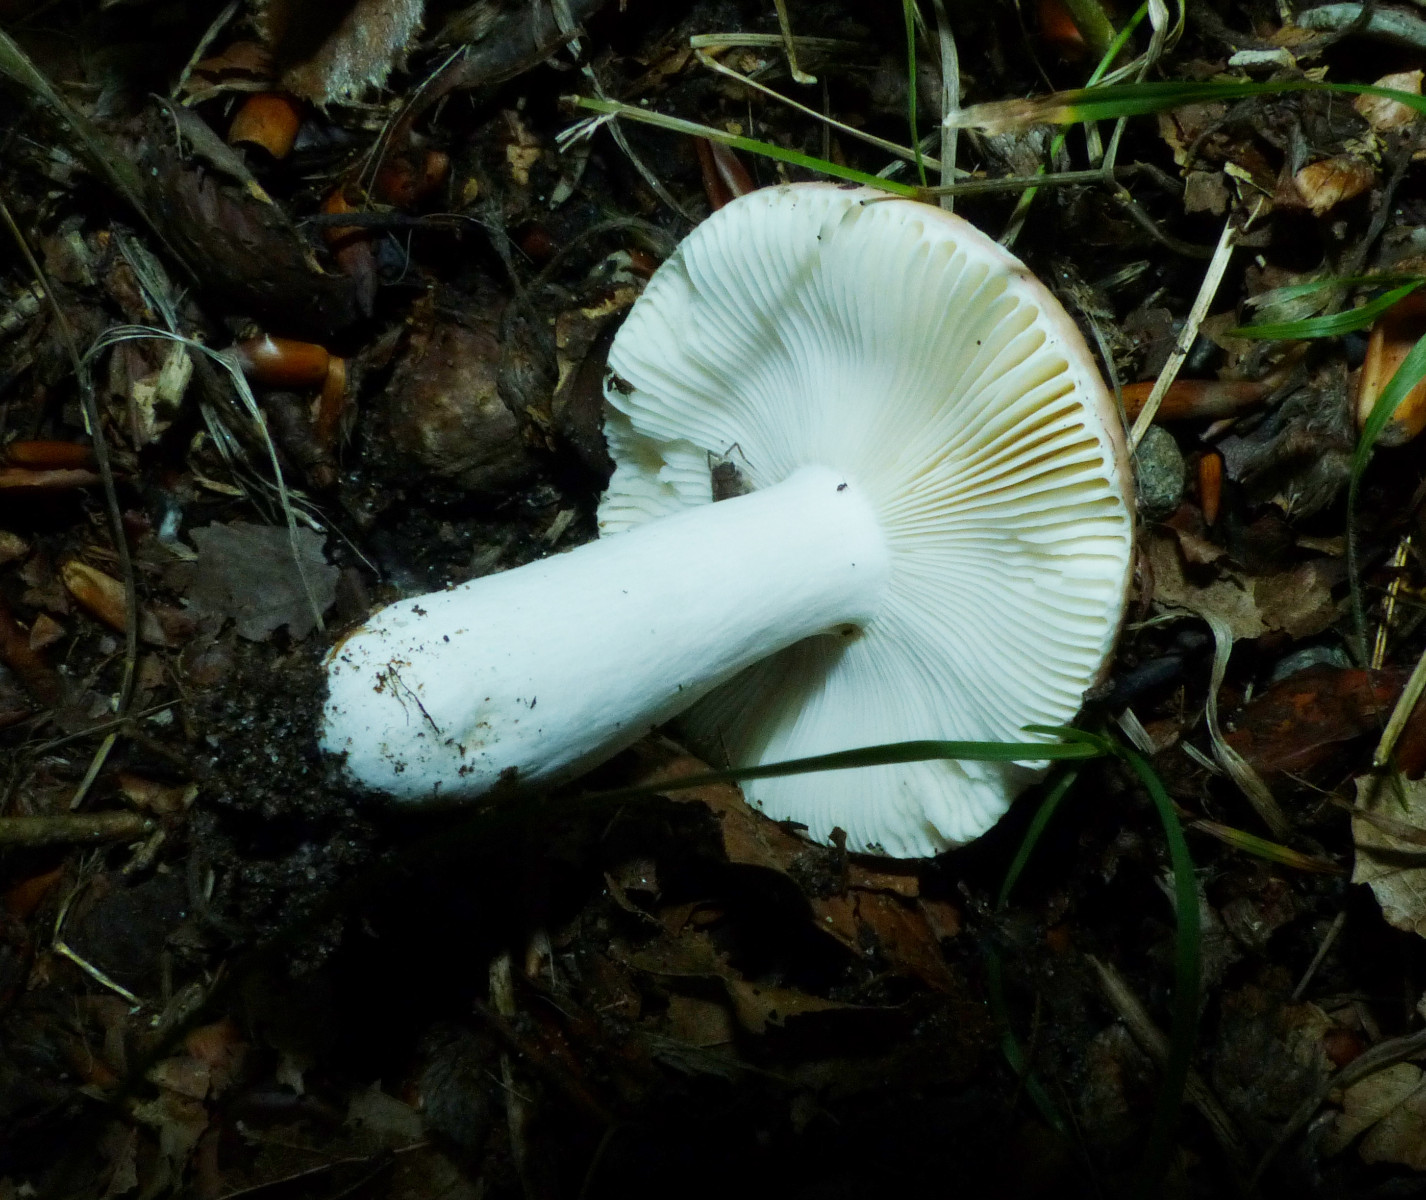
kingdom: Fungi
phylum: Basidiomycota
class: Agaricomycetes
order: Russulales
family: Russulaceae
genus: Russula
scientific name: Russula
